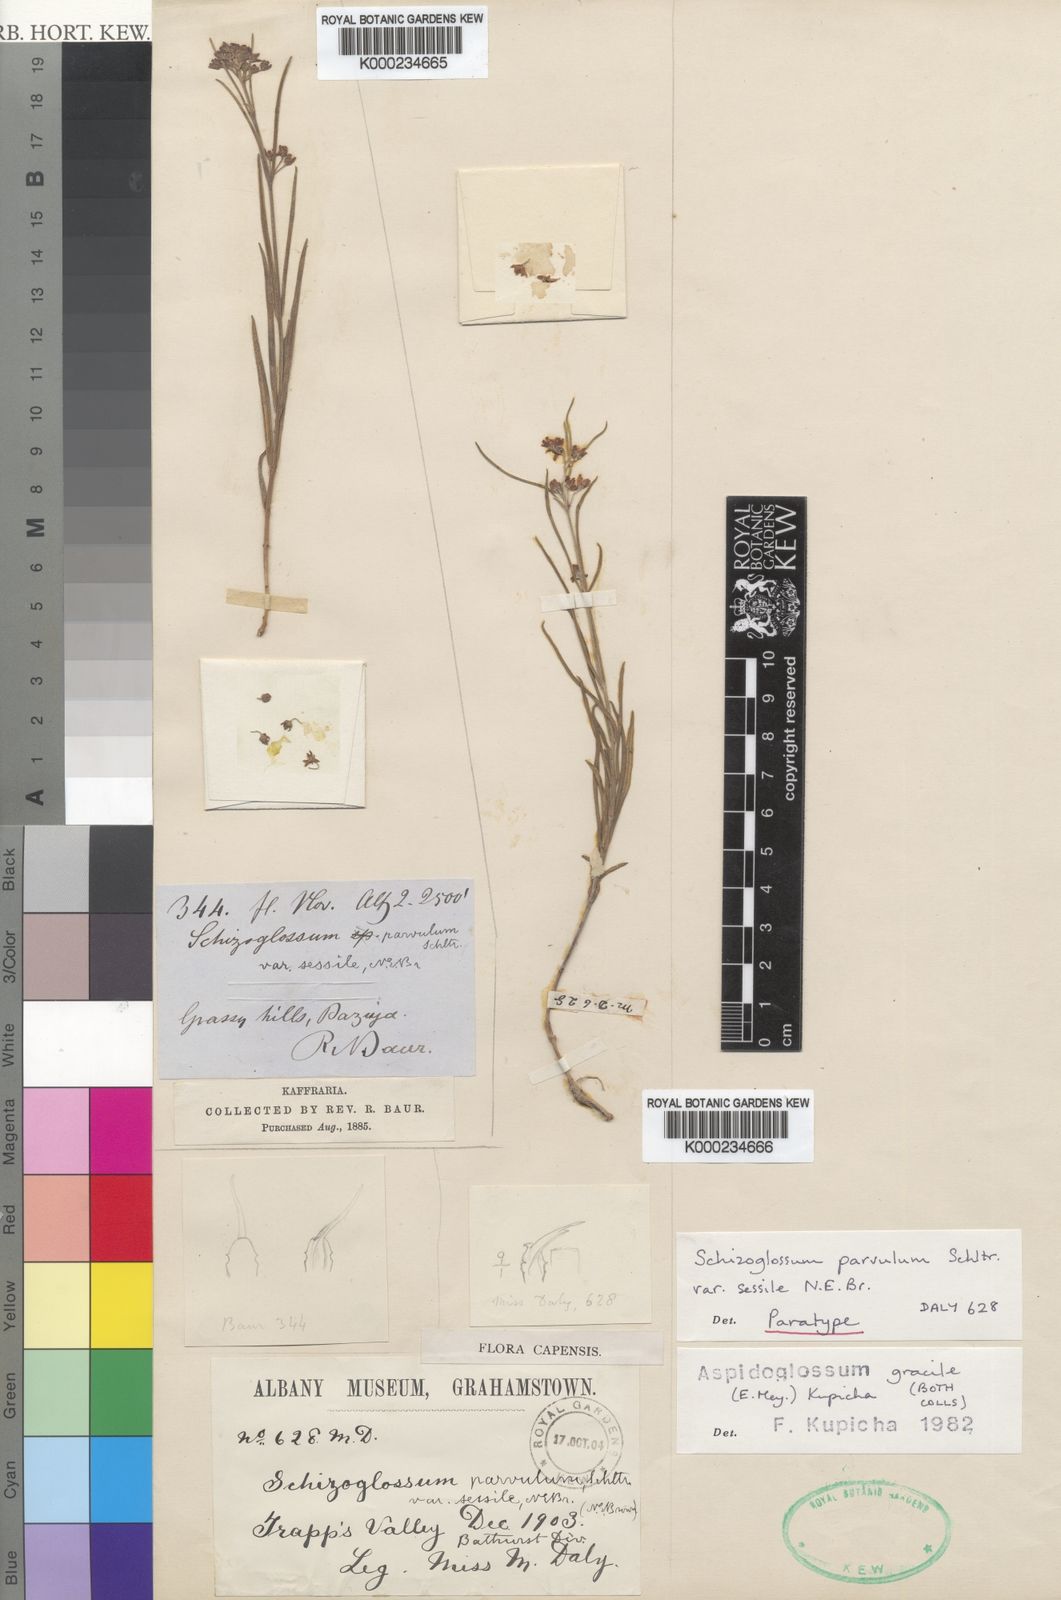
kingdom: Plantae
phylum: Tracheophyta
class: Magnoliopsida
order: Gentianales
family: Apocynaceae
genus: Aspidoglossum
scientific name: Aspidoglossum gracile
